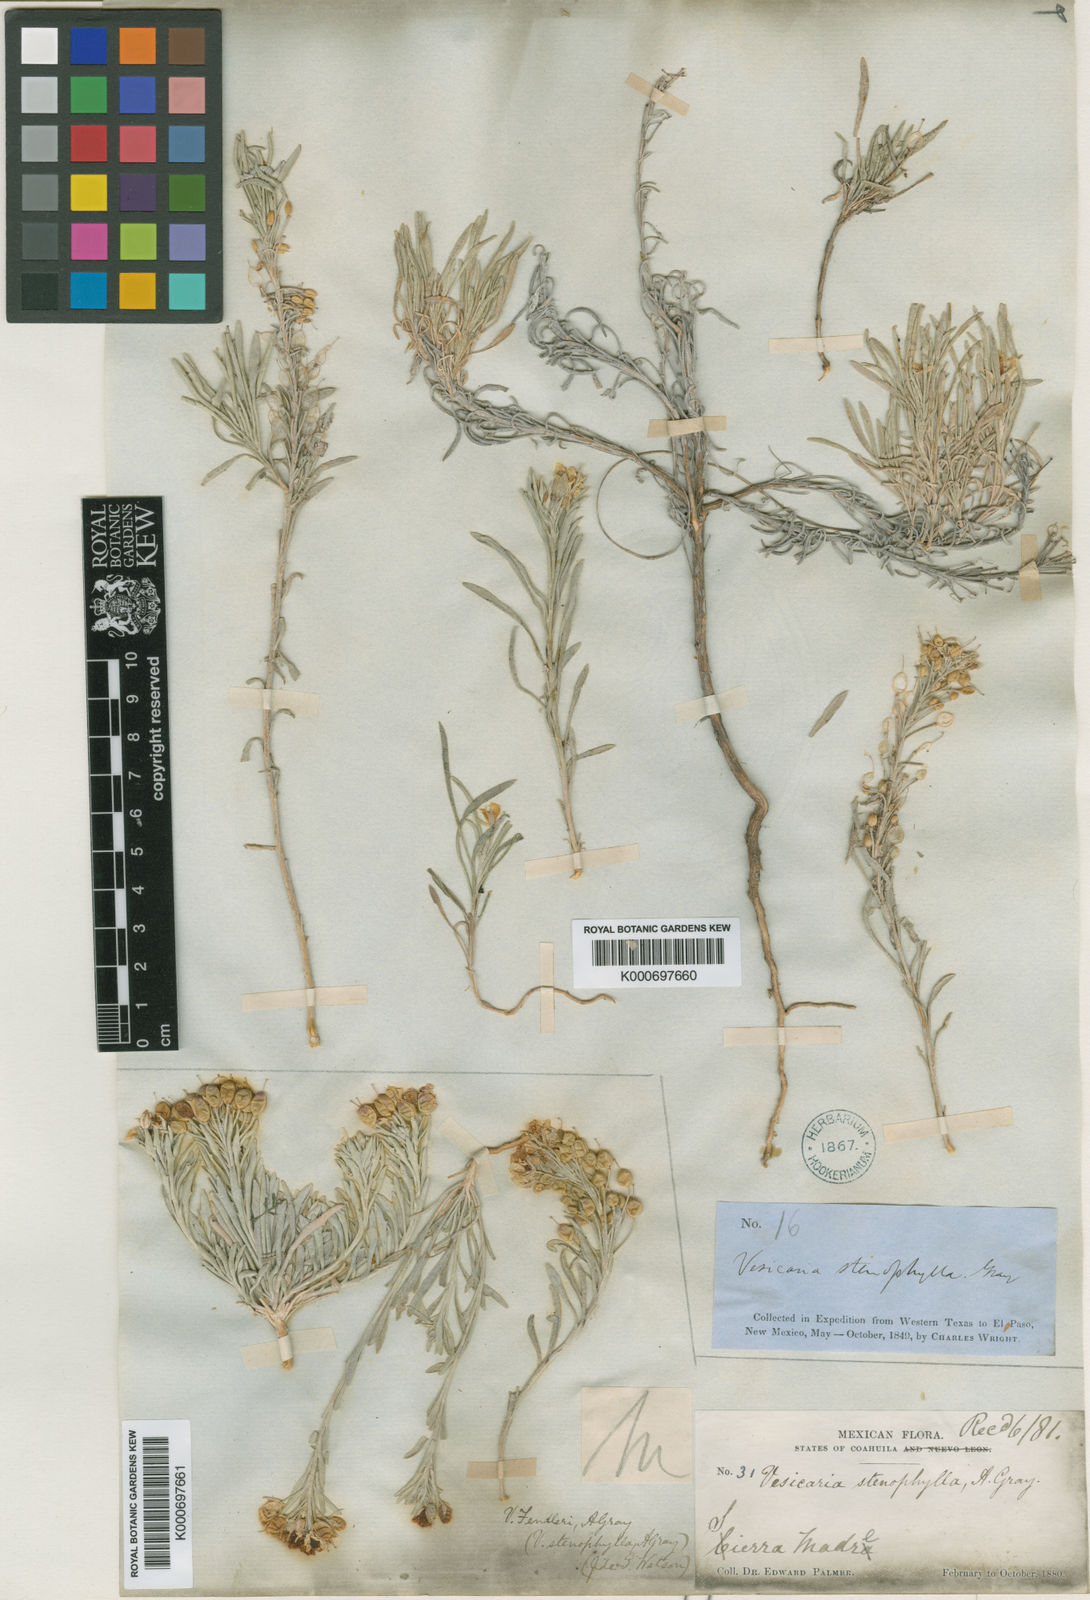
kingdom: Plantae
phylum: Tracheophyta
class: Magnoliopsida
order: Brassicales
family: Brassicaceae
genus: Physaria
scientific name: Physaria fendleri
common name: Fendler's bladderpod
